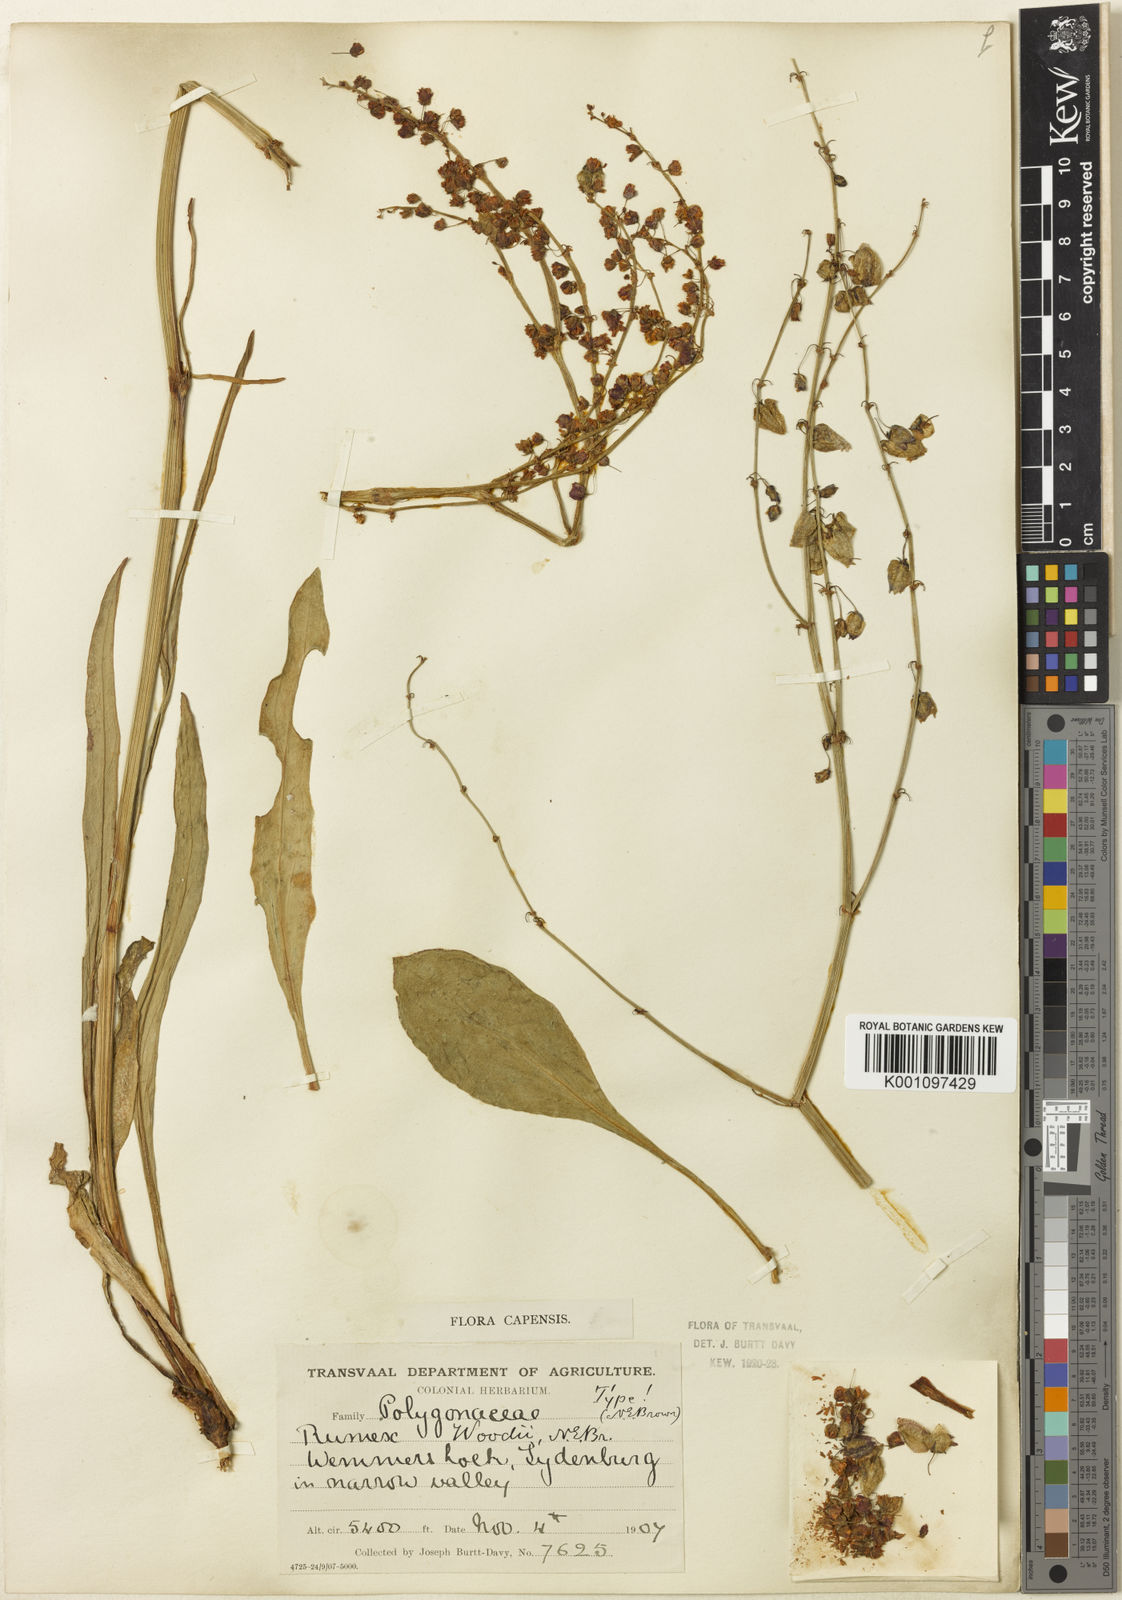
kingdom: Plantae
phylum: Tracheophyta
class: Magnoliopsida
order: Caryophyllales
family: Polygonaceae
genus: Rumex
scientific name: Rumex woodii
